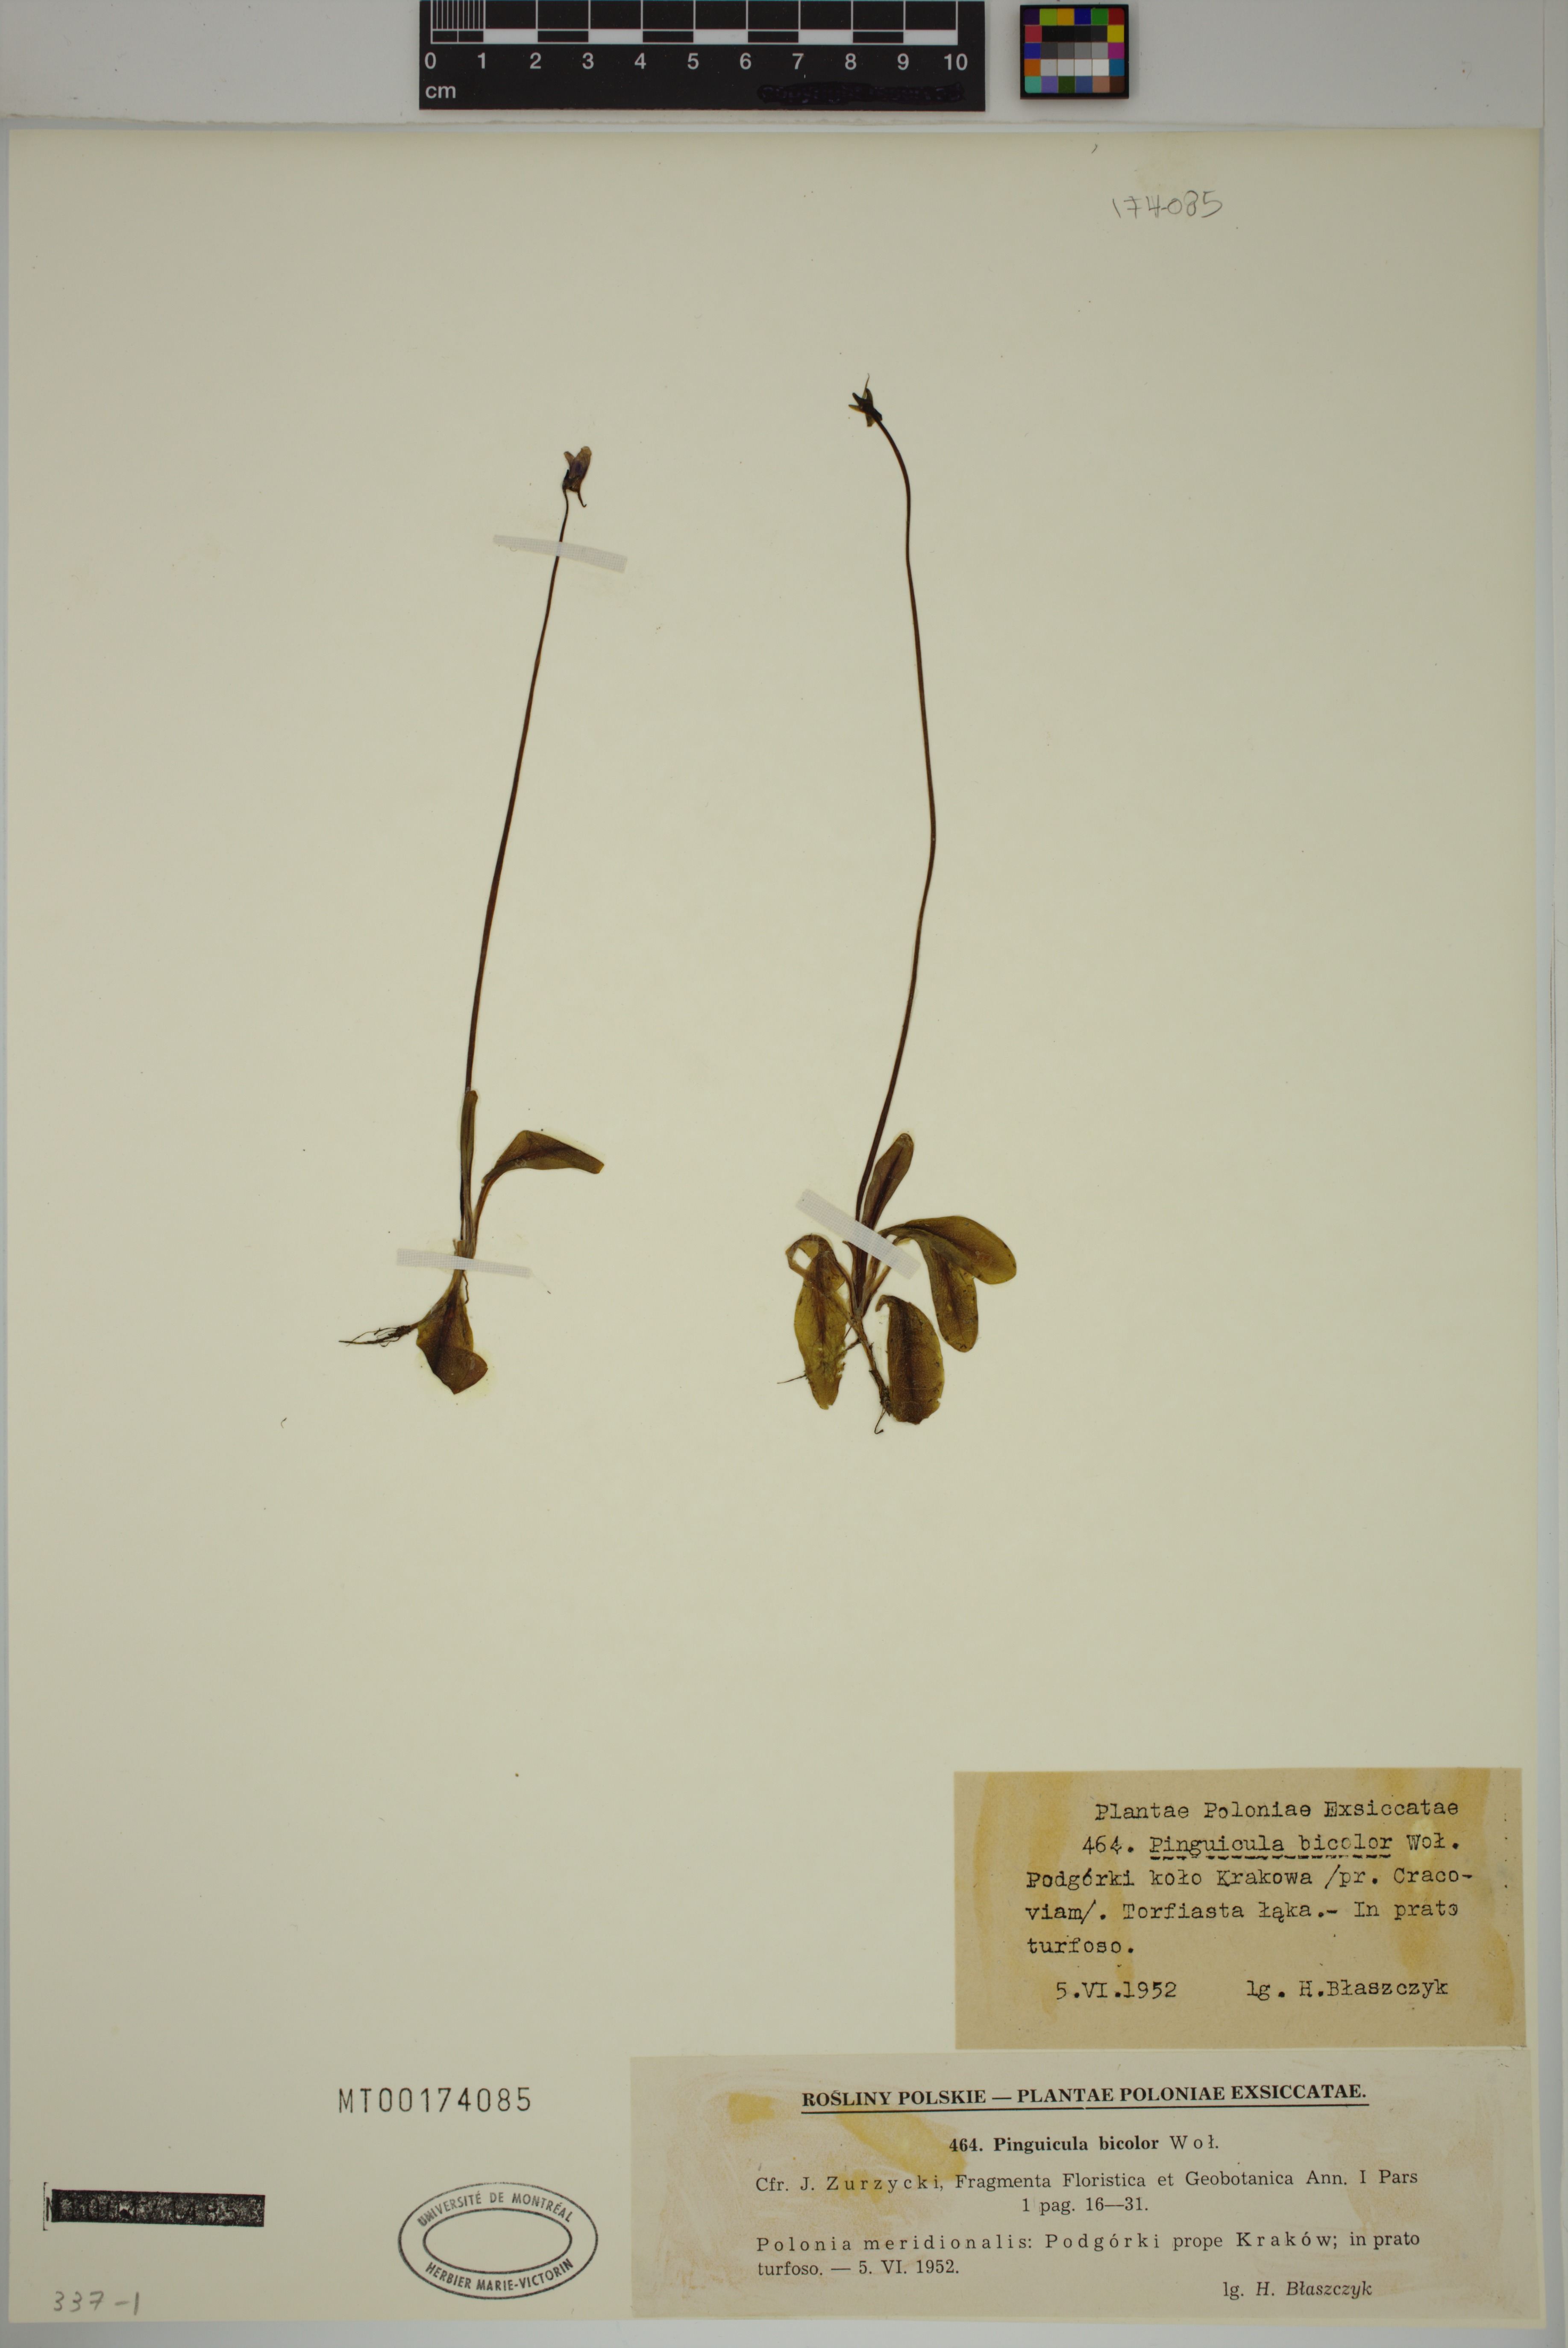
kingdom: Plantae
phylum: Tracheophyta
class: Magnoliopsida
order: Lamiales
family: Lentibulariaceae
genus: Pinguicula
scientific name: Pinguicula vulgaris
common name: Common butterwort
